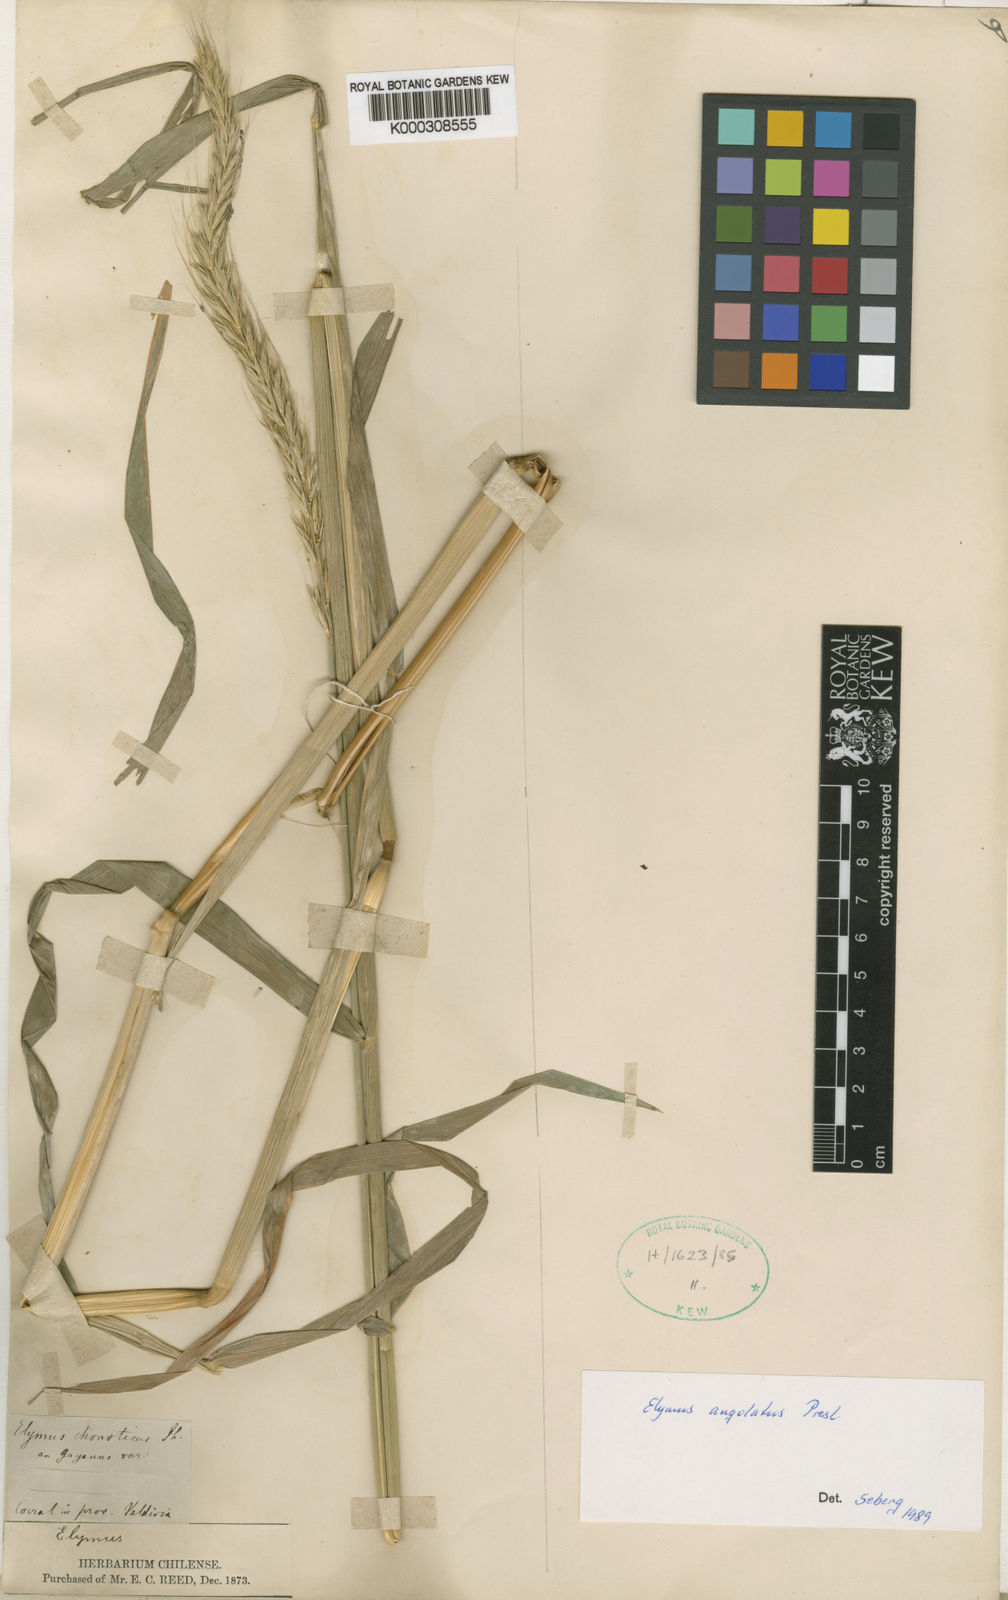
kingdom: Plantae
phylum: Tracheophyta
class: Liliopsida
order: Poales
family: Poaceae
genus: Elymus
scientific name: Elymus angulatus
